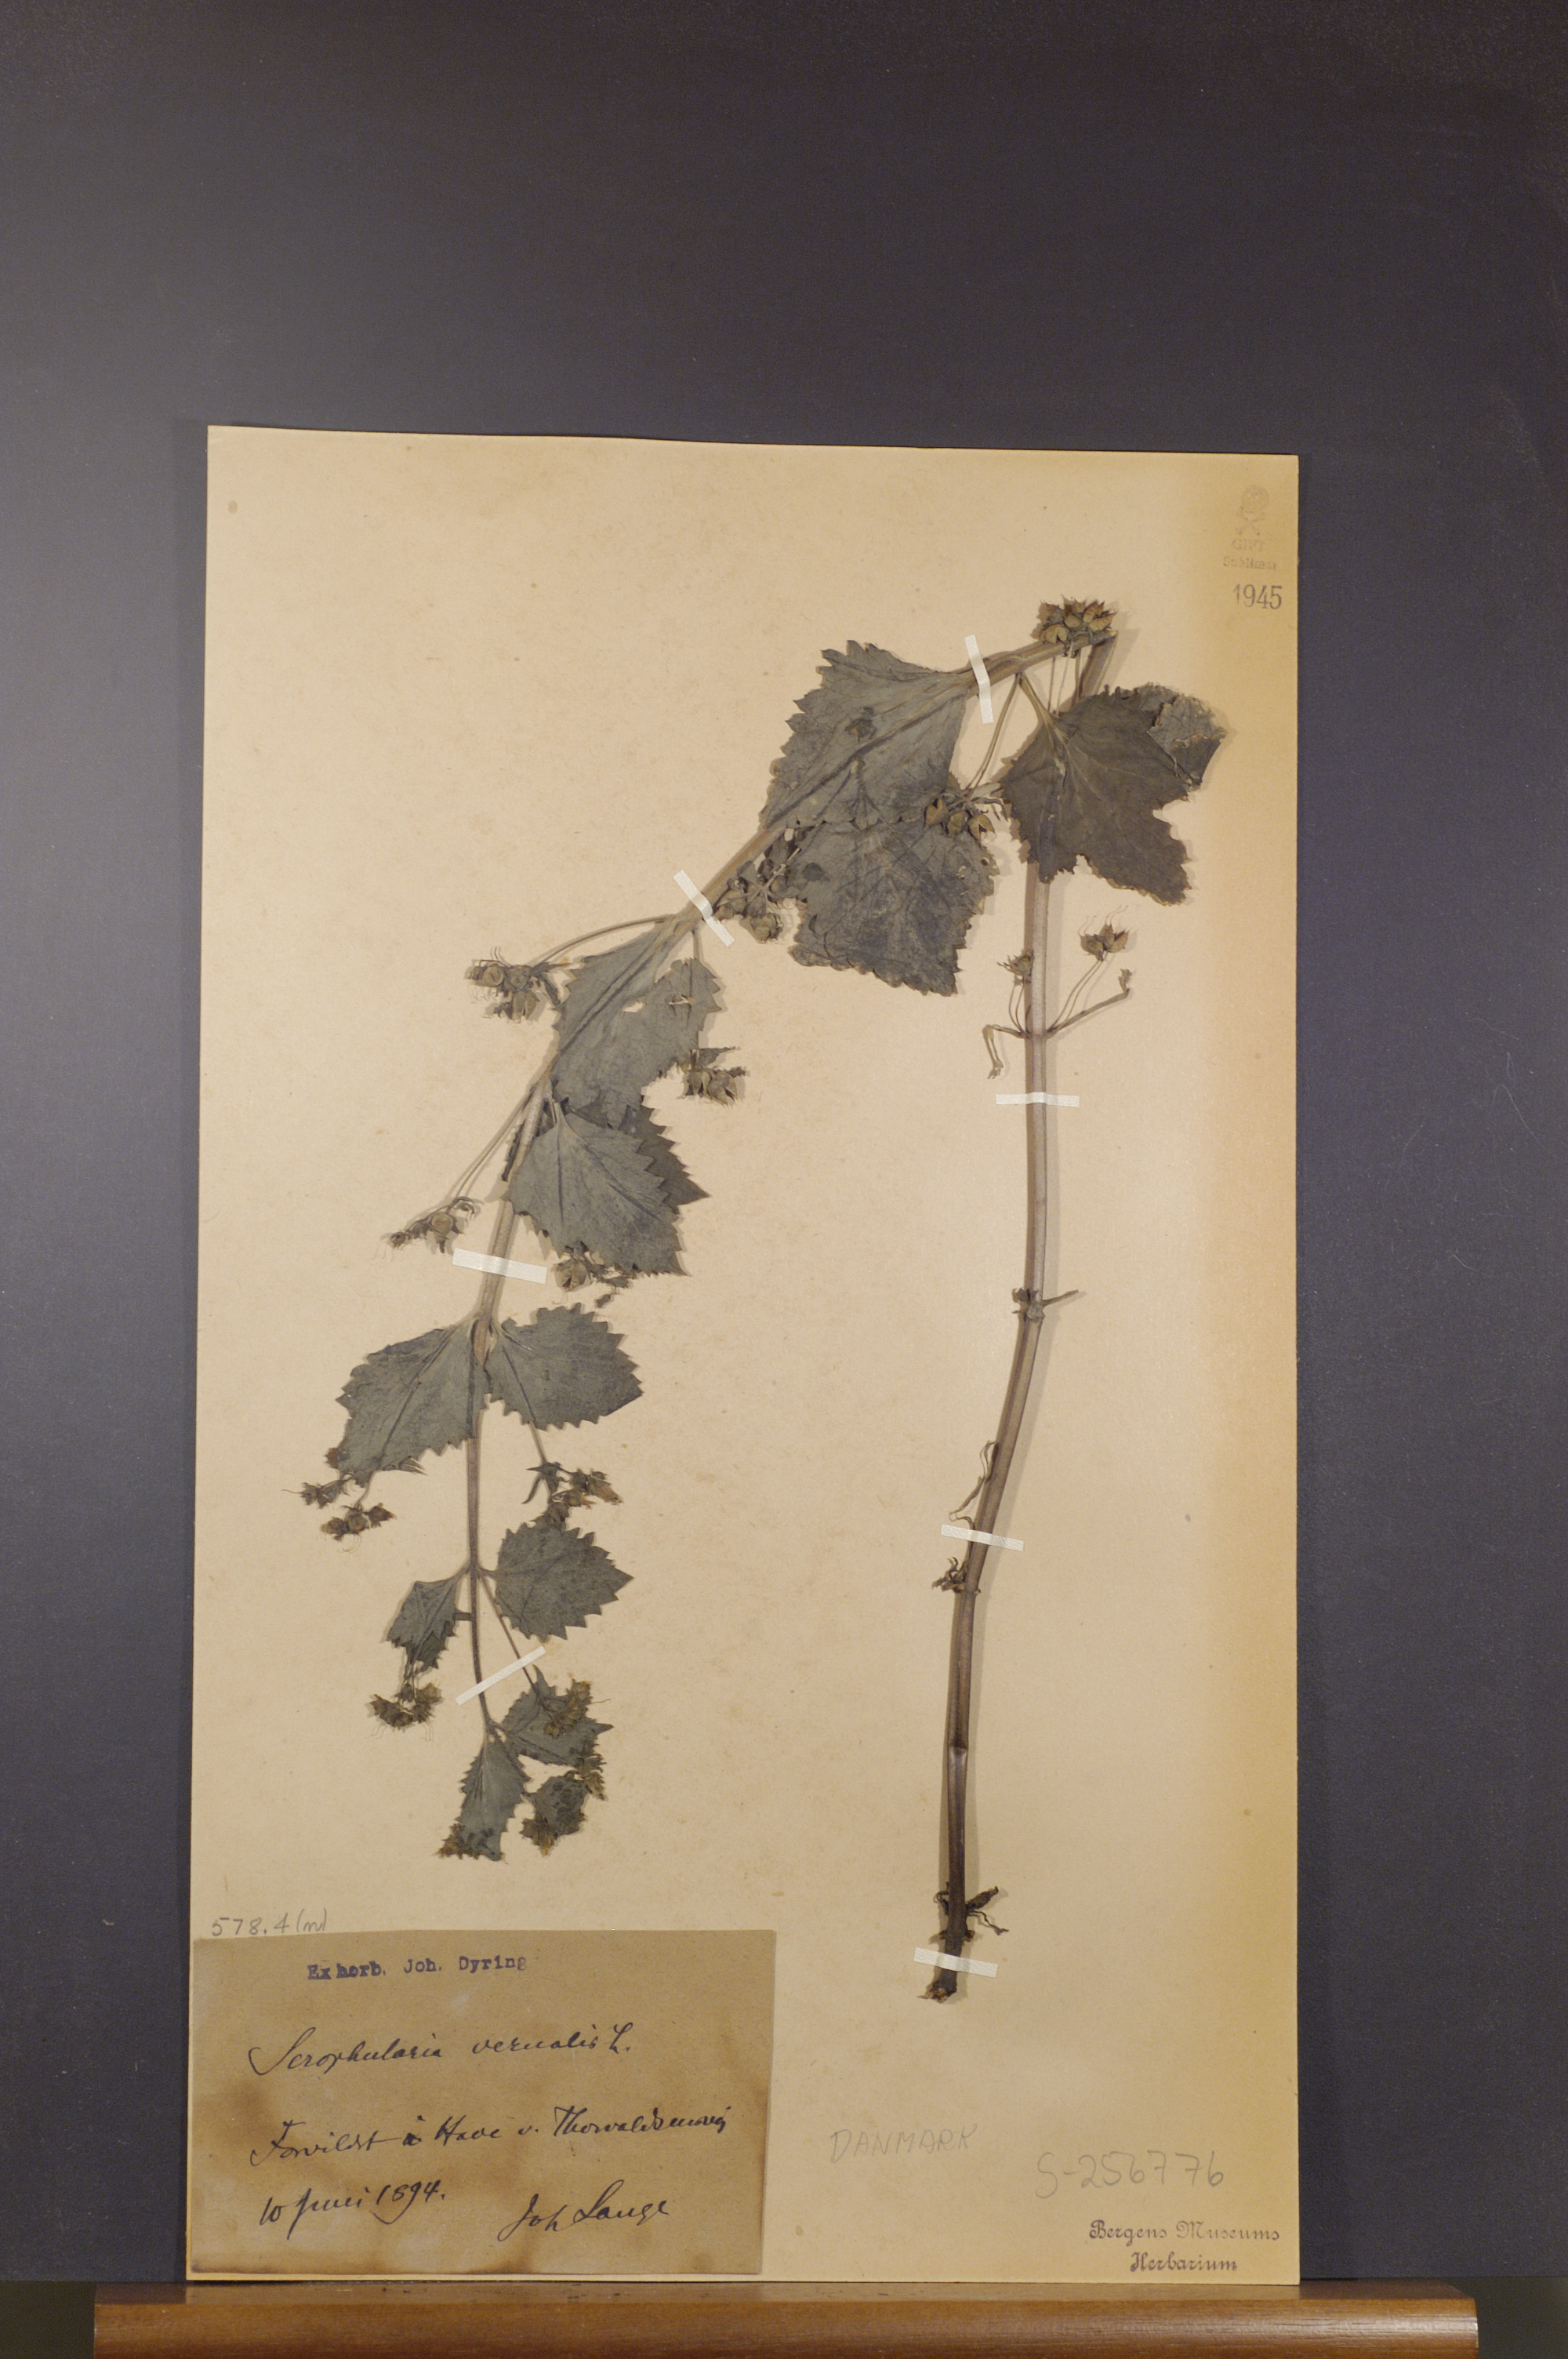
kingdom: Plantae
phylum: Tracheophyta
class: Magnoliopsida
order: Lamiales
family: Scrophulariaceae
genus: Scrophularia
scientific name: Scrophularia vernalis
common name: Yellow figwort
